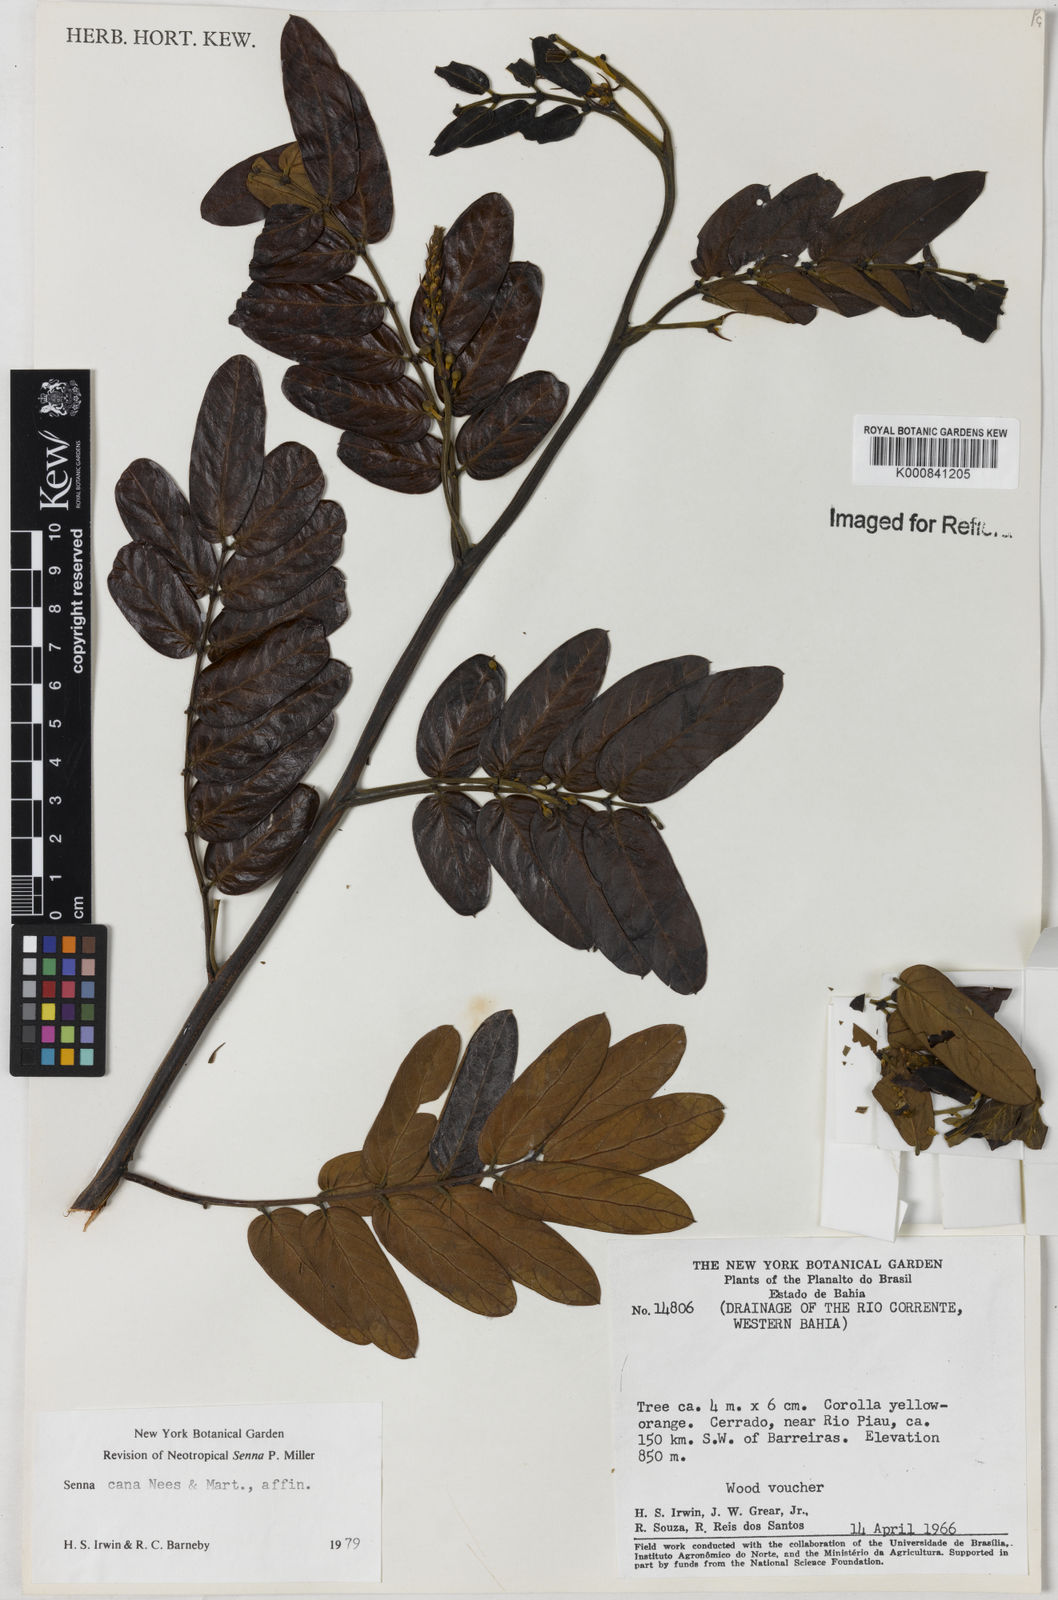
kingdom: Plantae
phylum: Tracheophyta
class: Magnoliopsida
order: Fabales
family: Fabaceae
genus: Senna
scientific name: Senna velutina
